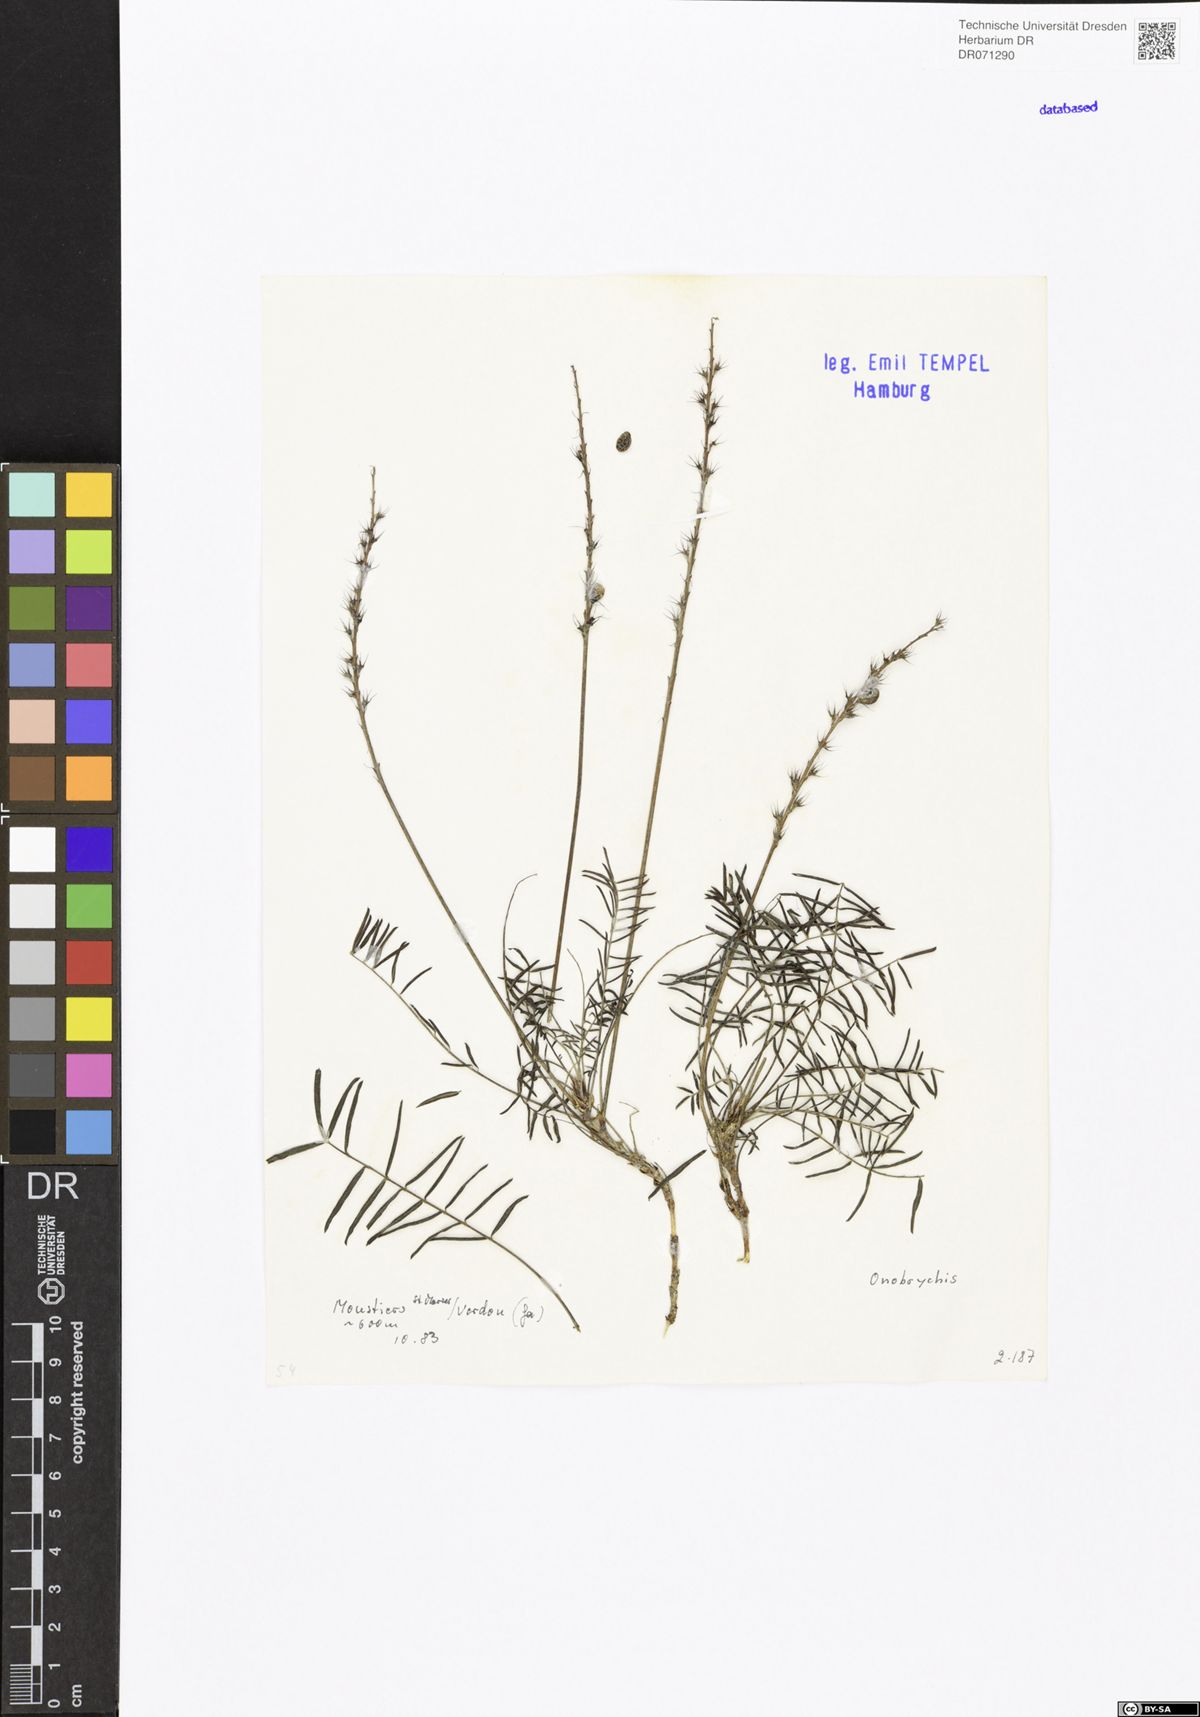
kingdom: Plantae
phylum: Tracheophyta
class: Magnoliopsida
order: Fabales
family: Fabaceae
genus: Onobrychis
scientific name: Onobrychis
